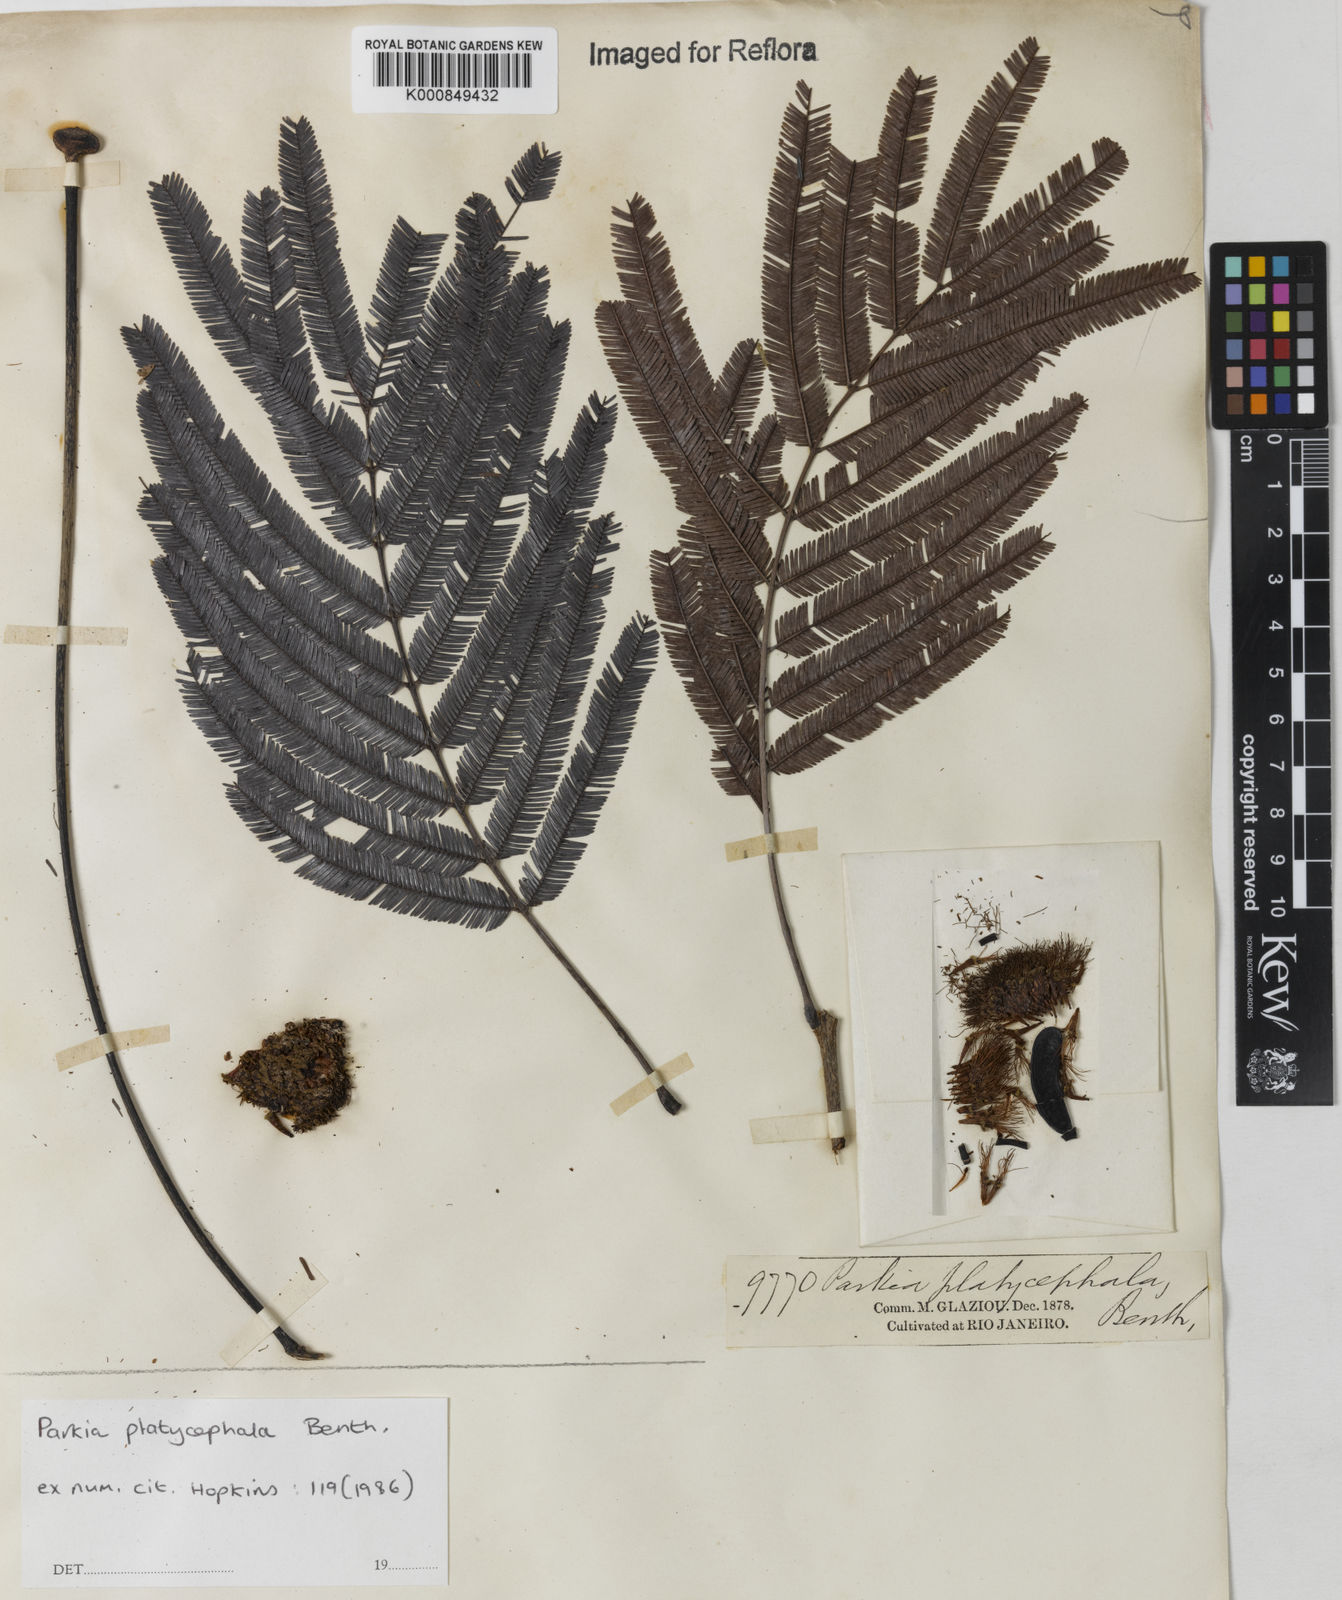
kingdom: Plantae
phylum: Tracheophyta
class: Magnoliopsida
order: Fabales
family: Fabaceae
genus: Parkia
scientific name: Parkia platycephala
